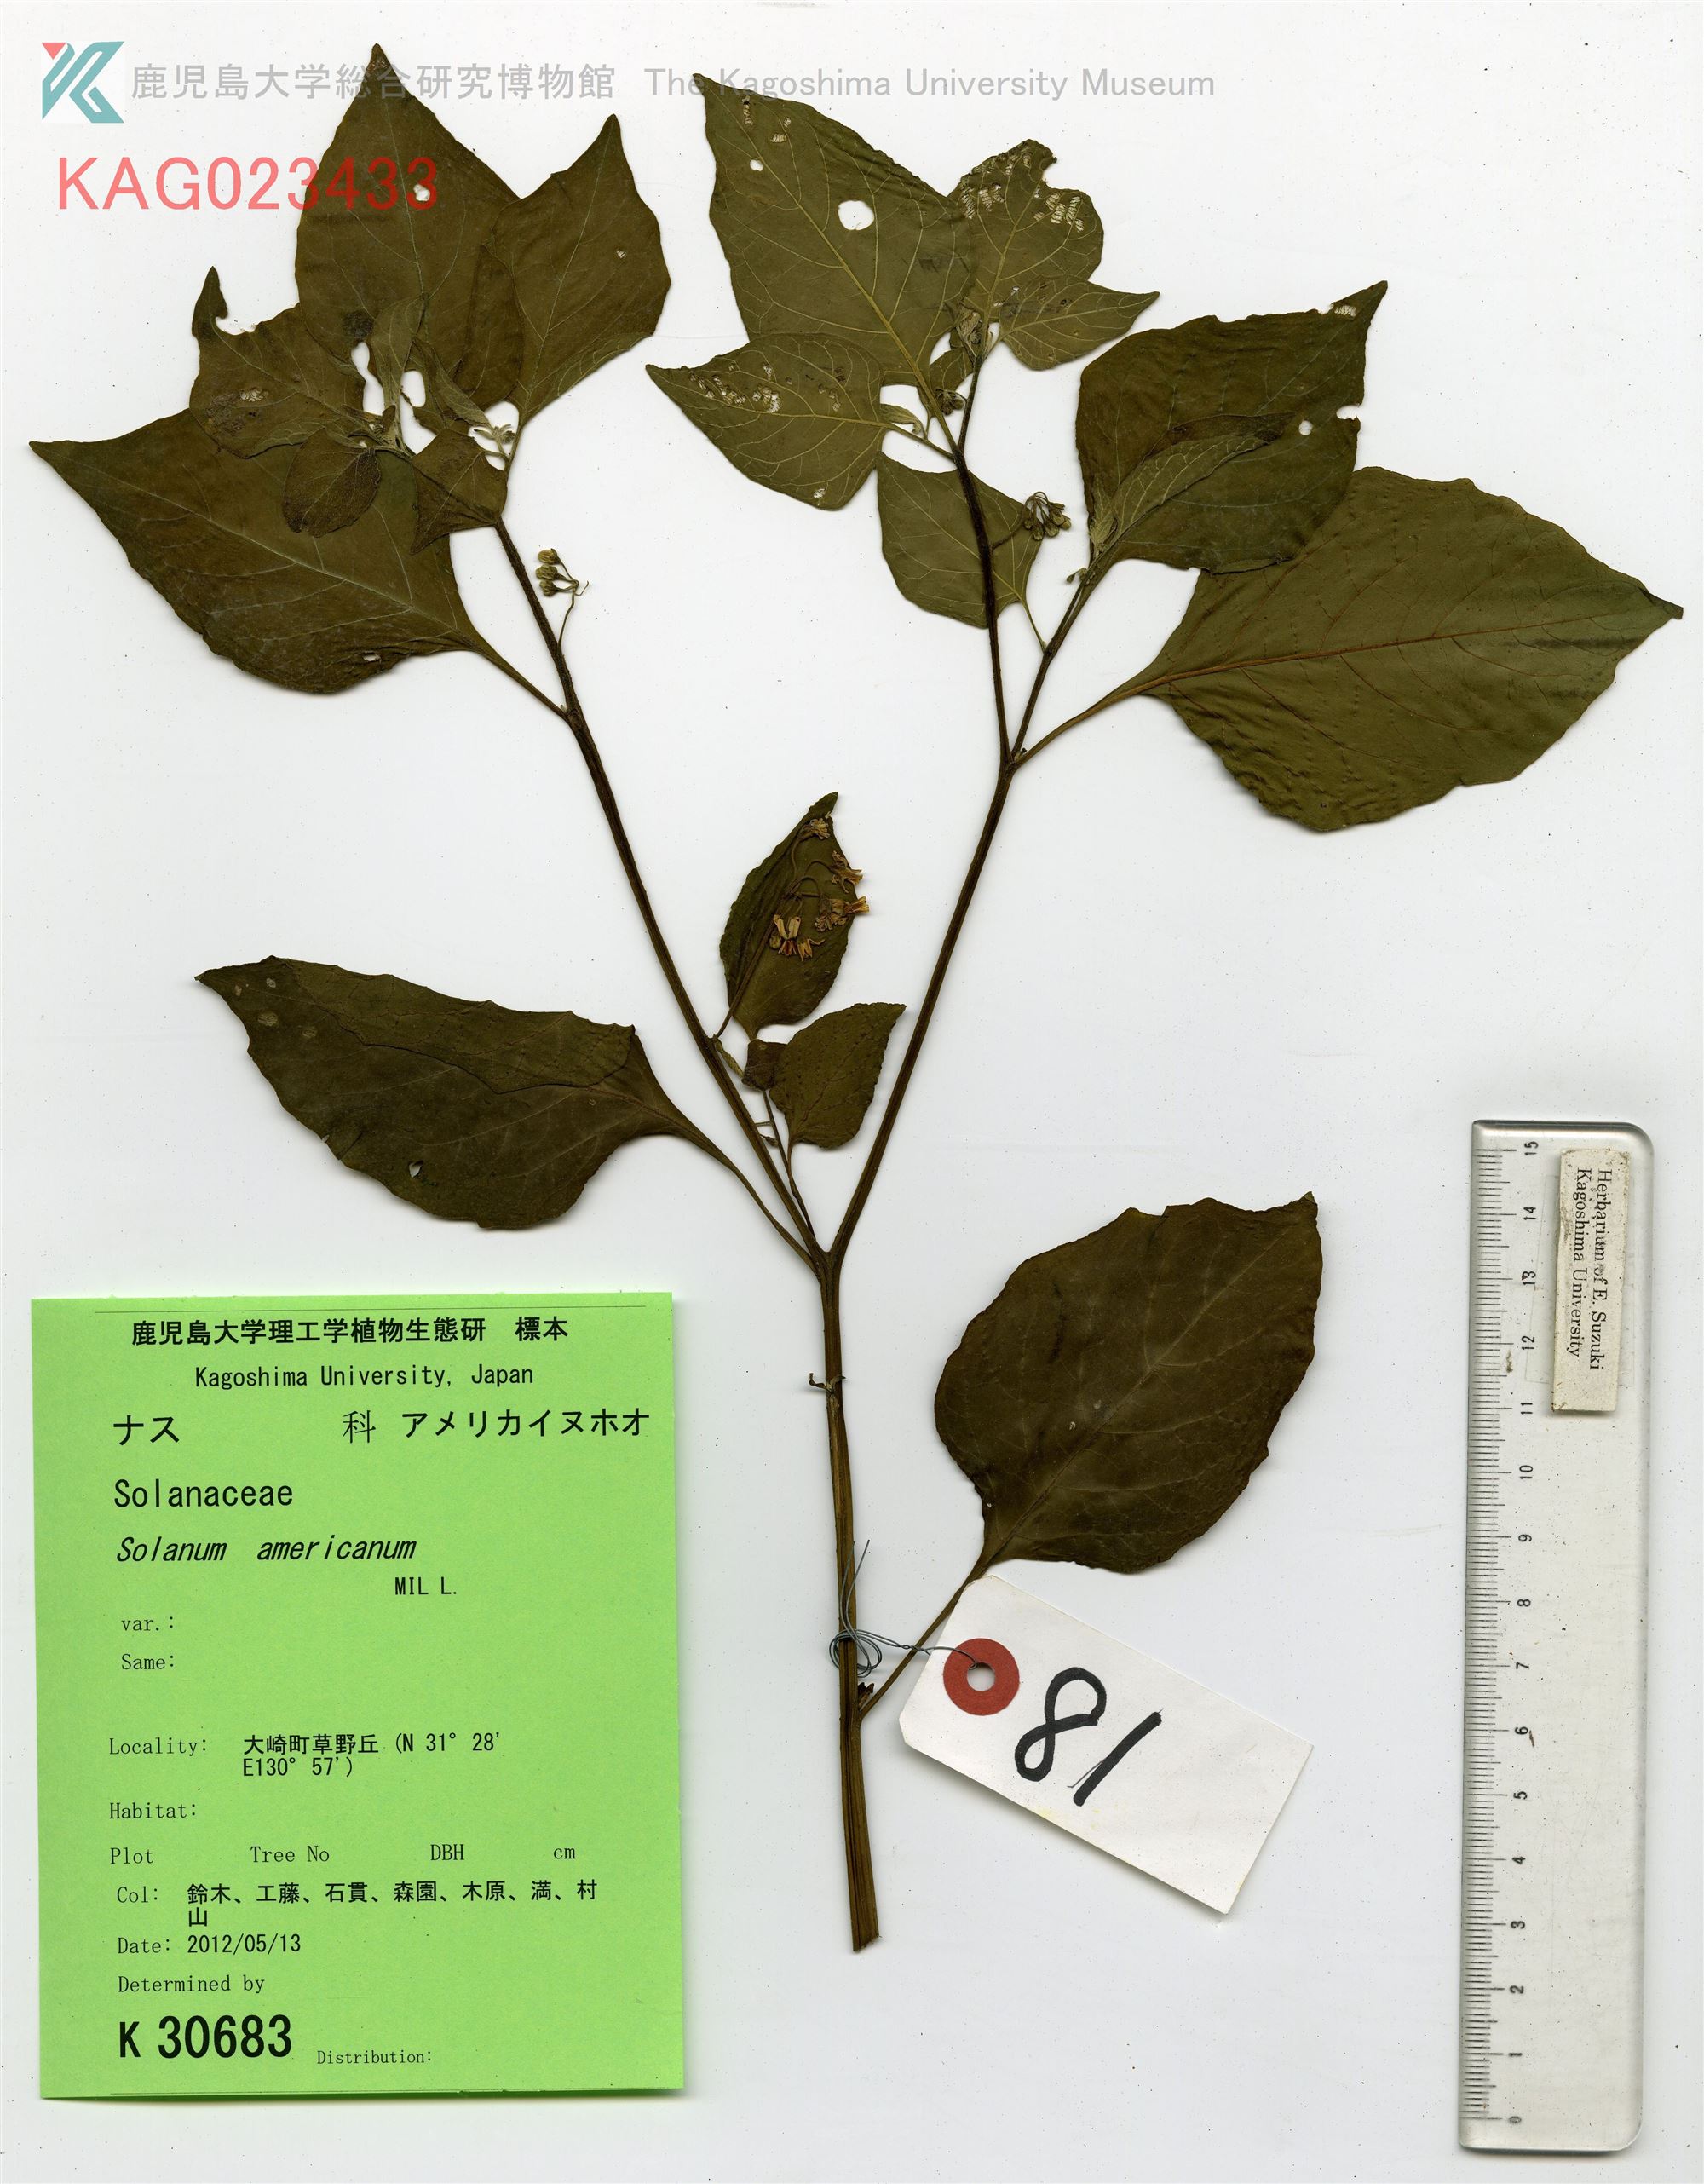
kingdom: Plantae
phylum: Tracheophyta
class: Magnoliopsida
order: Solanales
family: Solanaceae
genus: Solanum
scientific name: Solanum americanum
